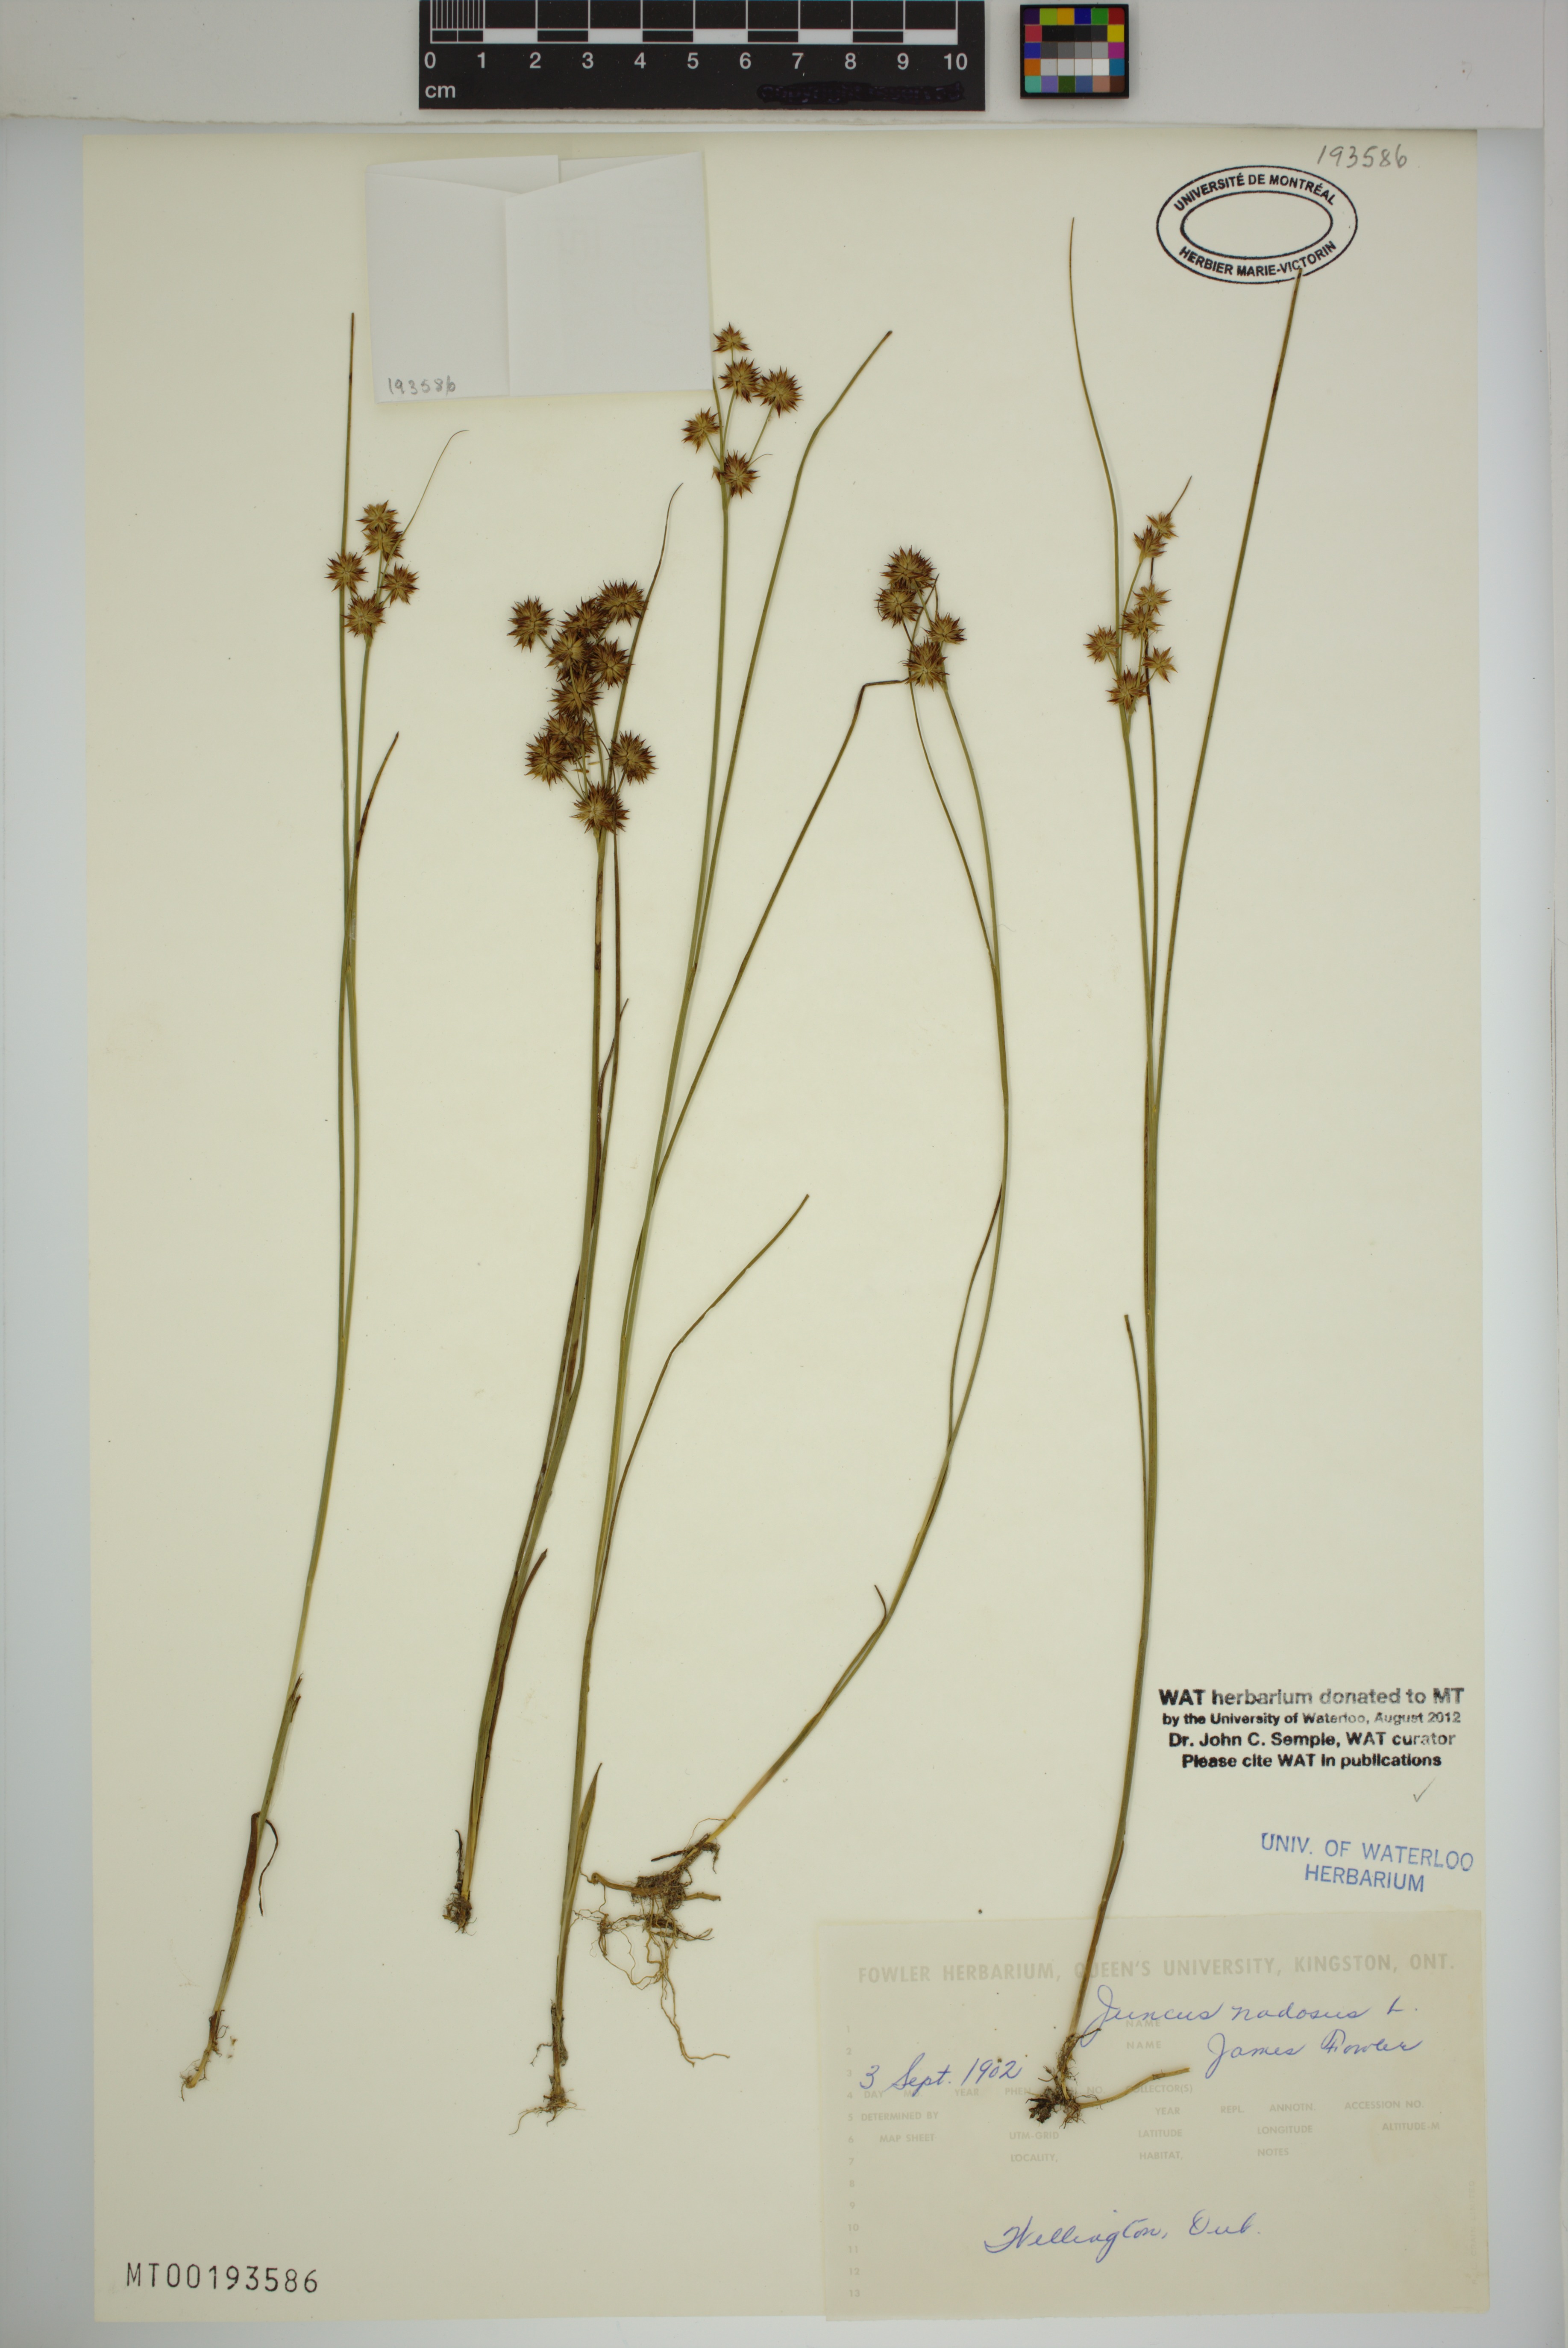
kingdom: Plantae
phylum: Tracheophyta
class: Liliopsida
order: Poales
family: Juncaceae
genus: Juncus
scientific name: Juncus nodosus
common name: Knotted rush
